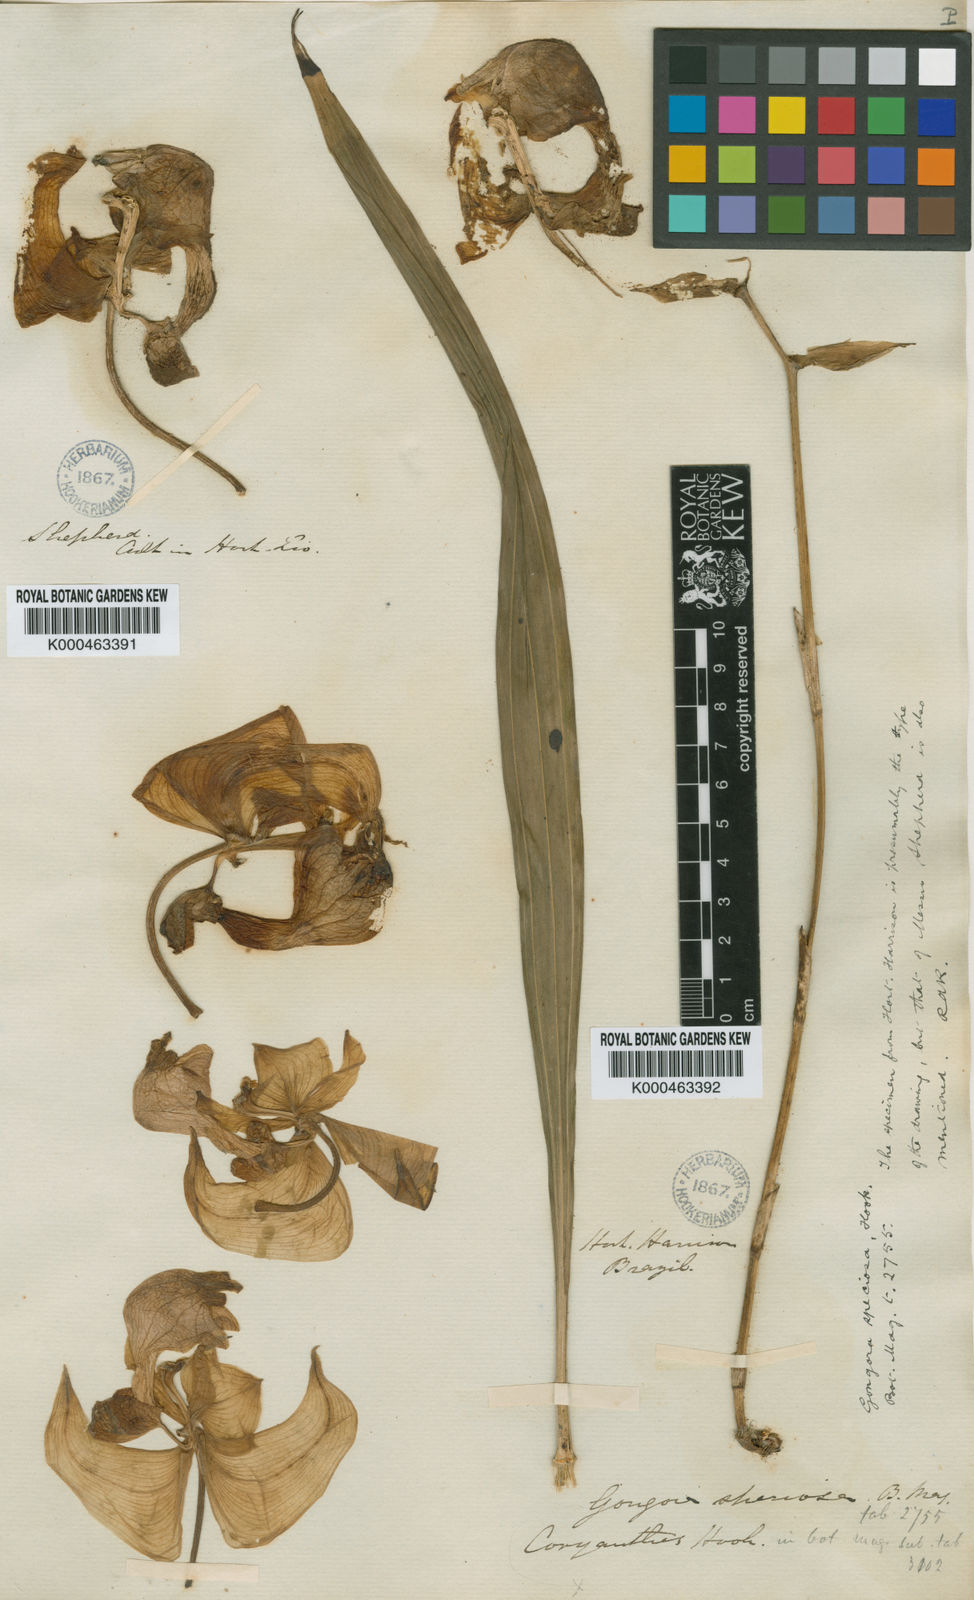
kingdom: Plantae
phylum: Tracheophyta
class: Liliopsida
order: Asparagales
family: Orchidaceae
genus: Coryanthes
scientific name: Coryanthes speciosa
